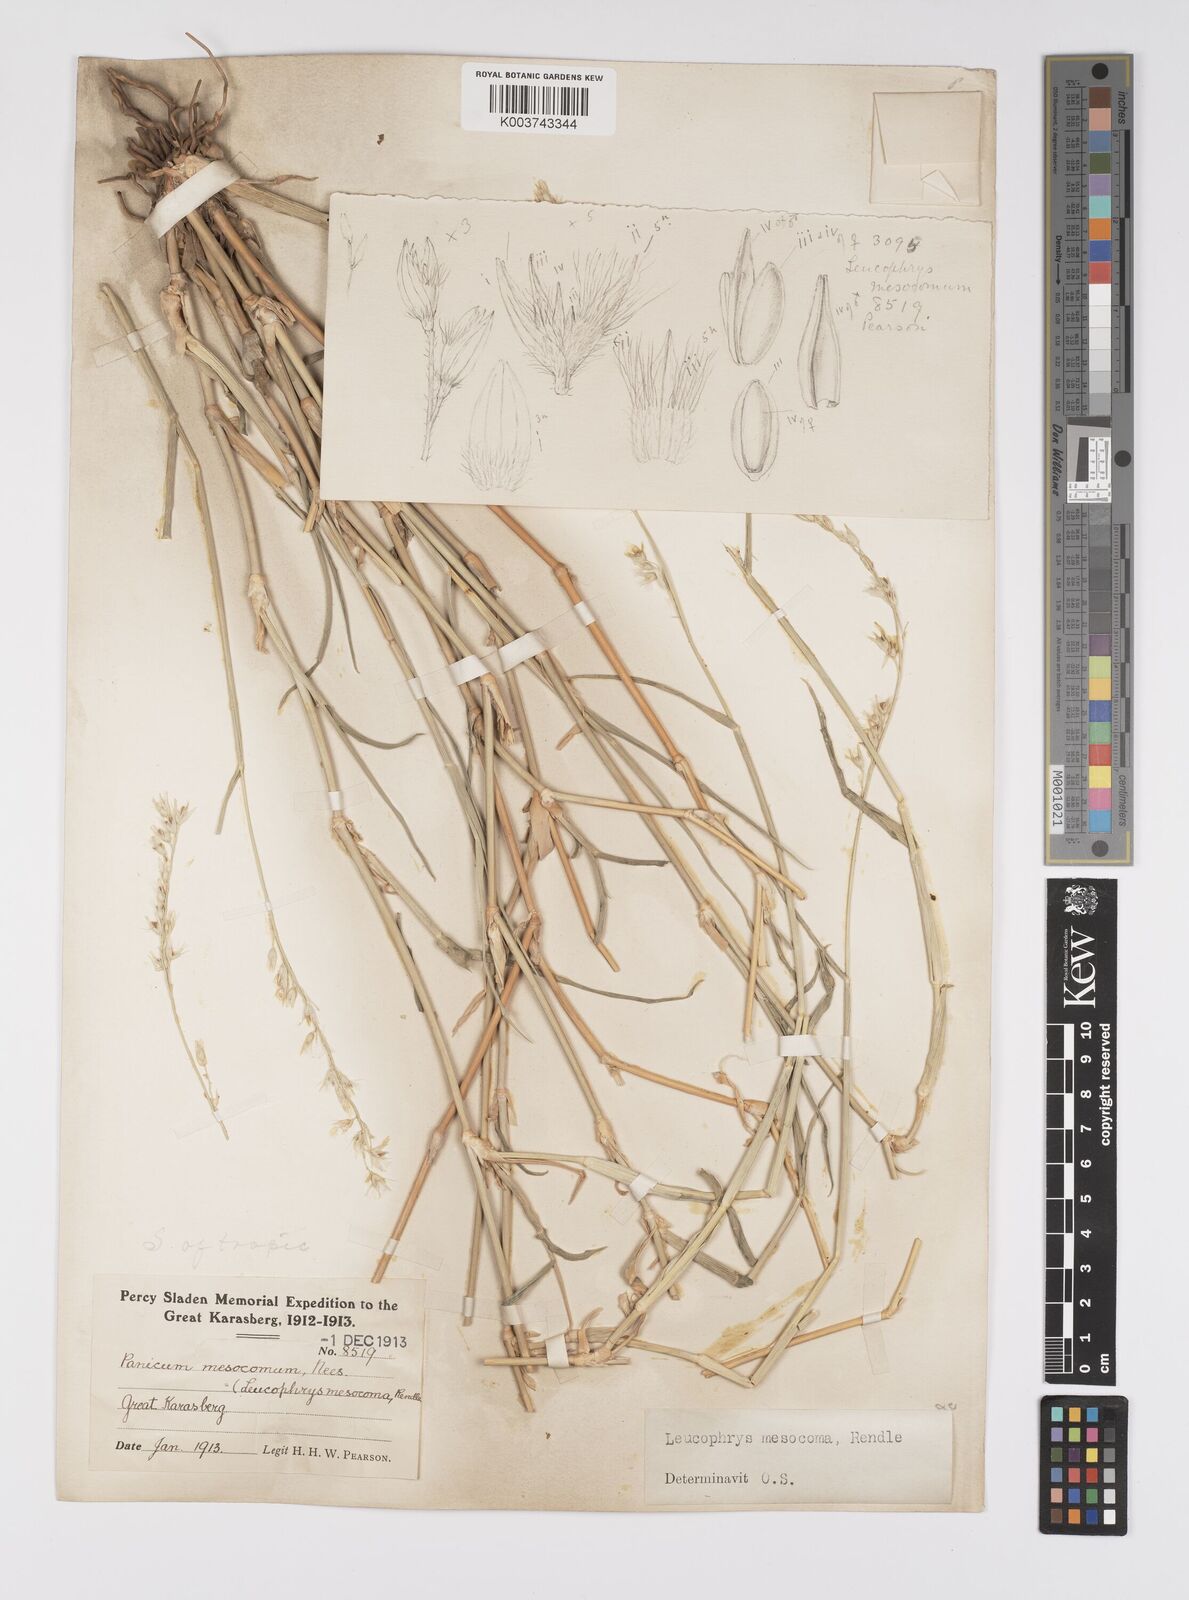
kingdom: Plantae
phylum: Tracheophyta
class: Liliopsida
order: Poales
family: Poaceae
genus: Urochloa
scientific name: Urochloa Brachiaria mesocoma
